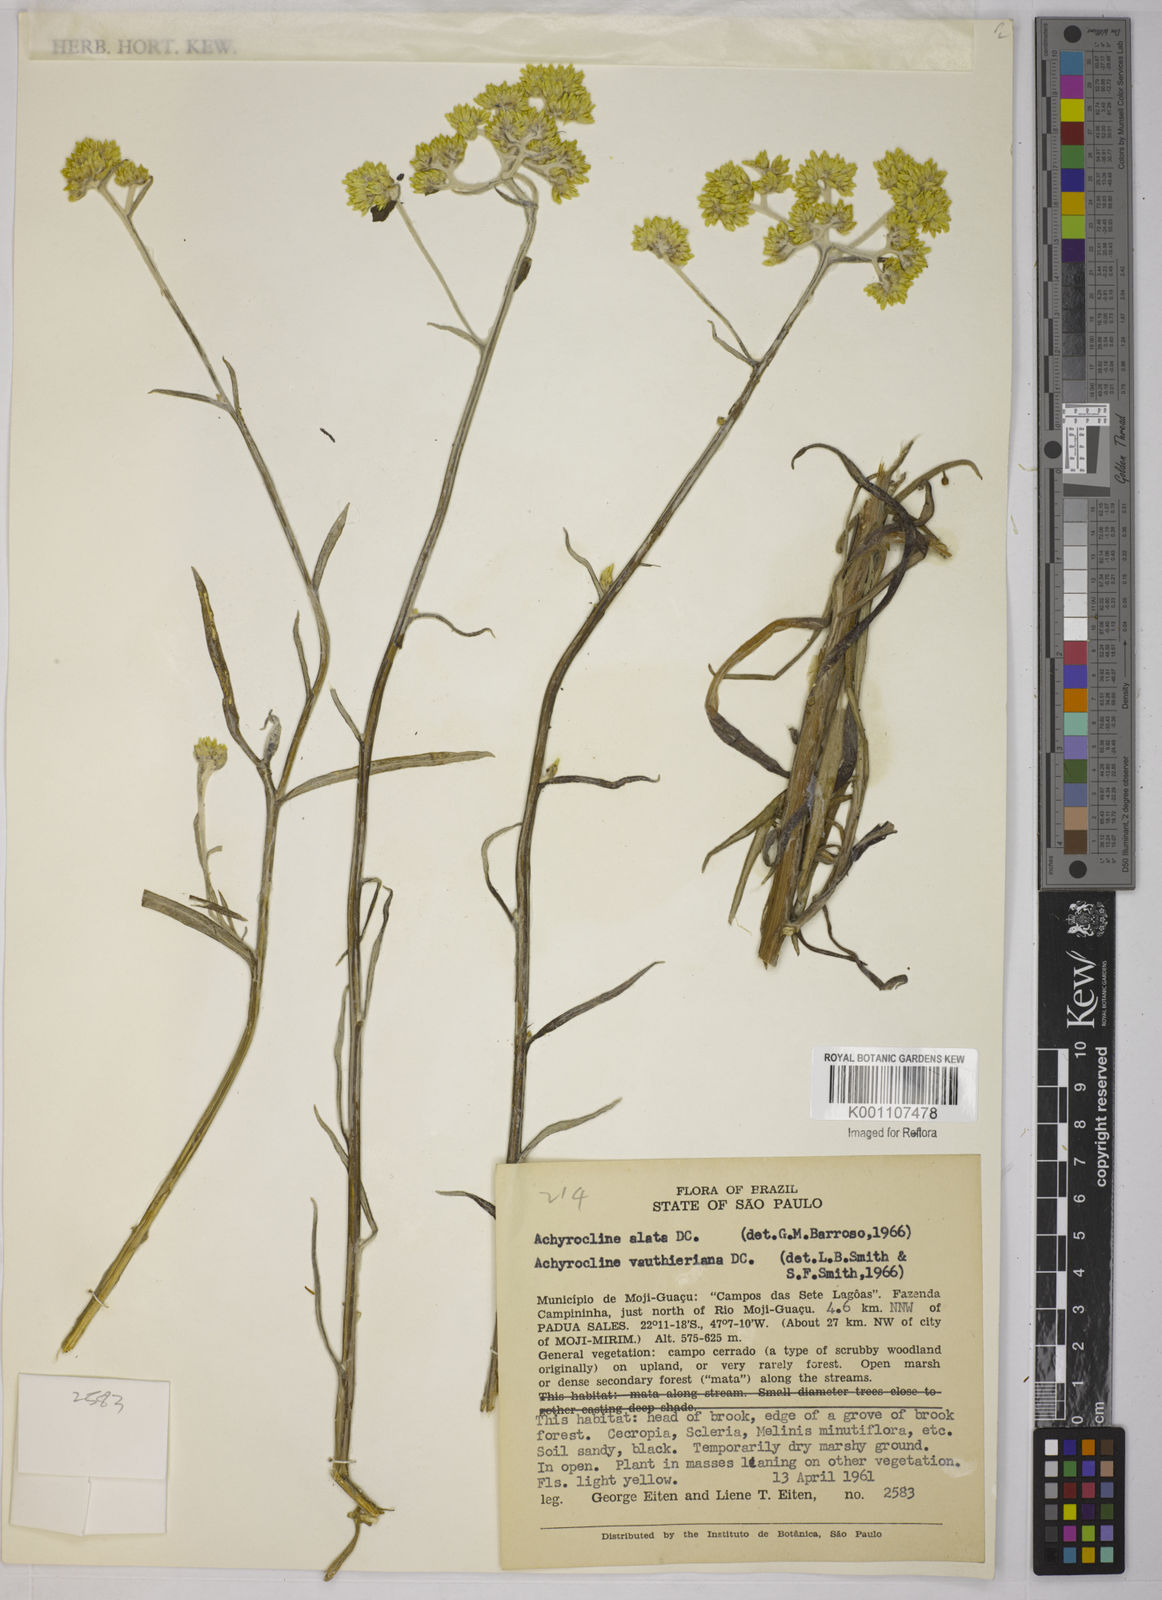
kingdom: Plantae
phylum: Tracheophyta
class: Magnoliopsida
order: Asterales
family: Asteraceae
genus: Achyrocline
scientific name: Achyrocline alata
